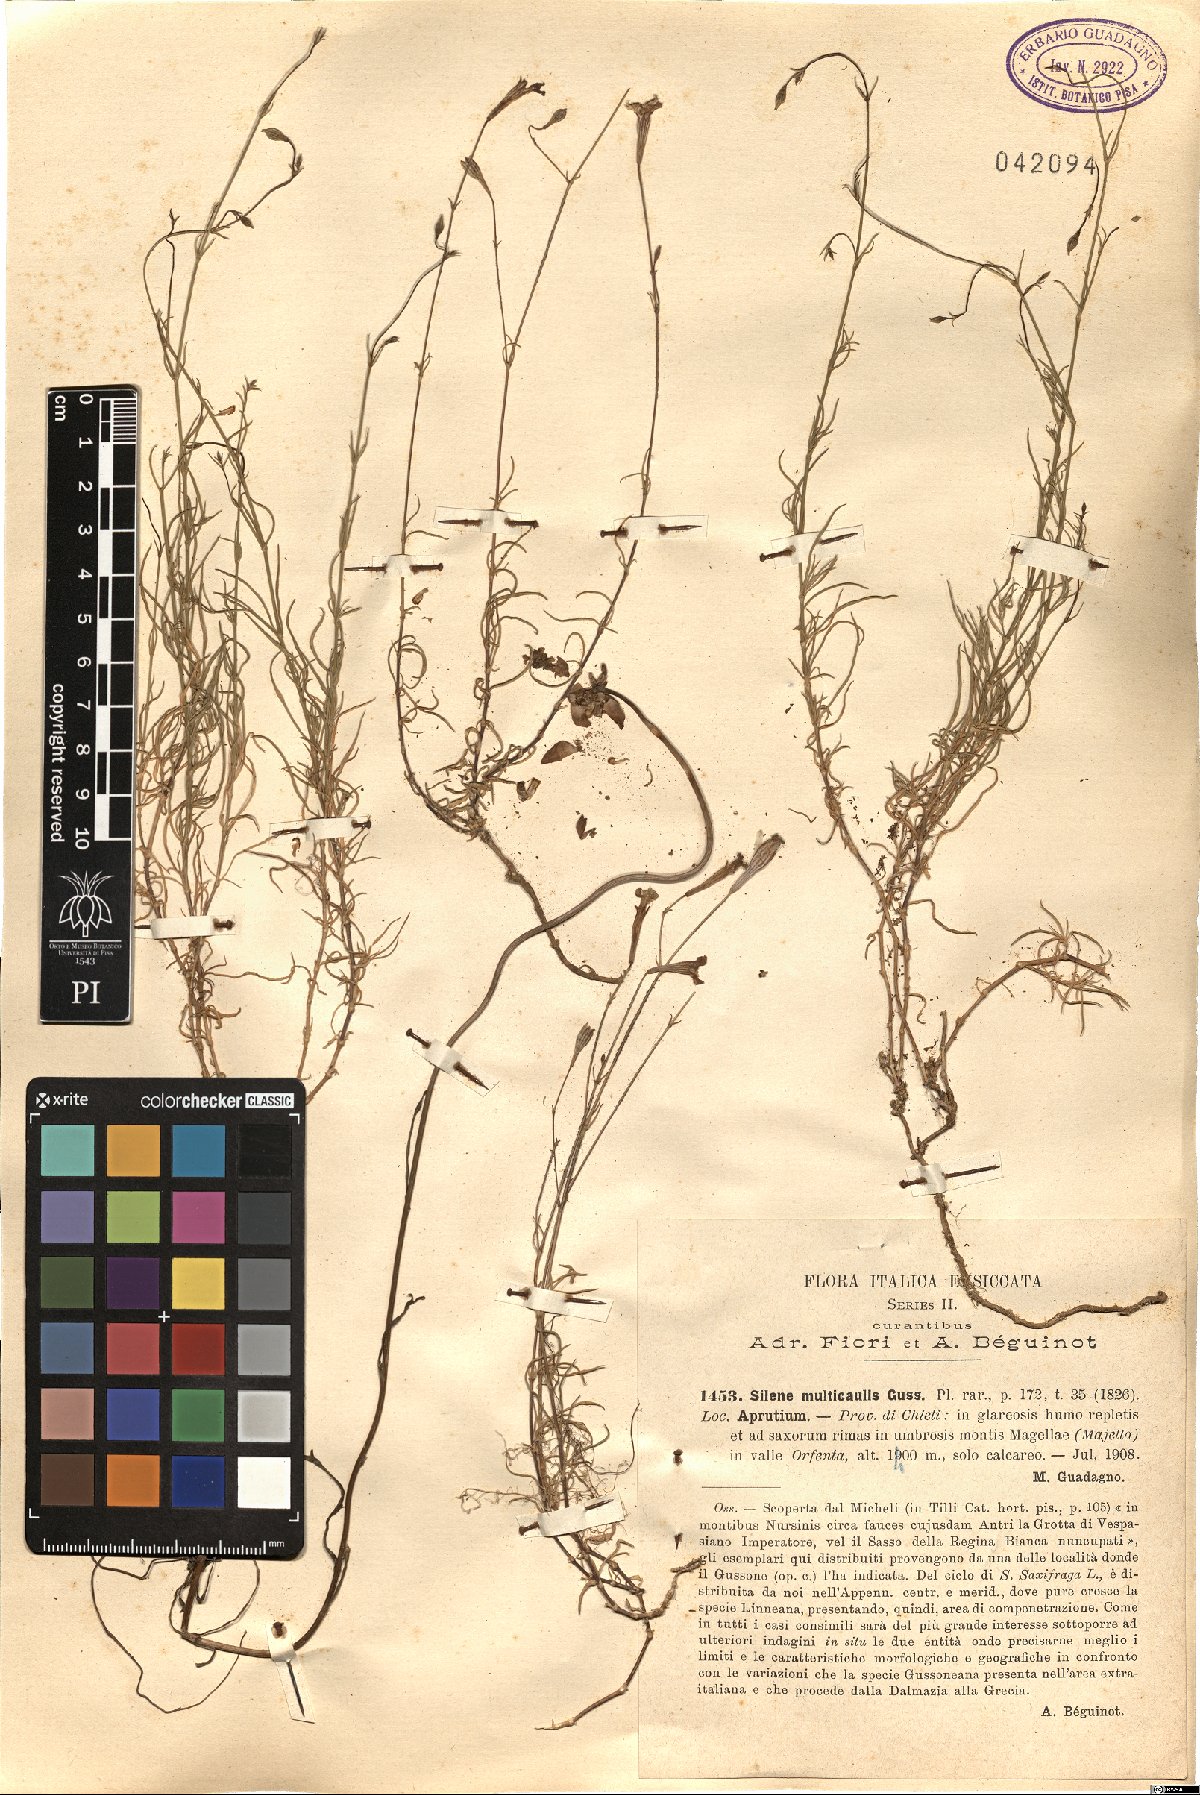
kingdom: Plantae
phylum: Tracheophyta
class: Magnoliopsida
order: Caryophyllales
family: Caryophyllaceae
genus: Silene
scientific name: Silene multicaulis
